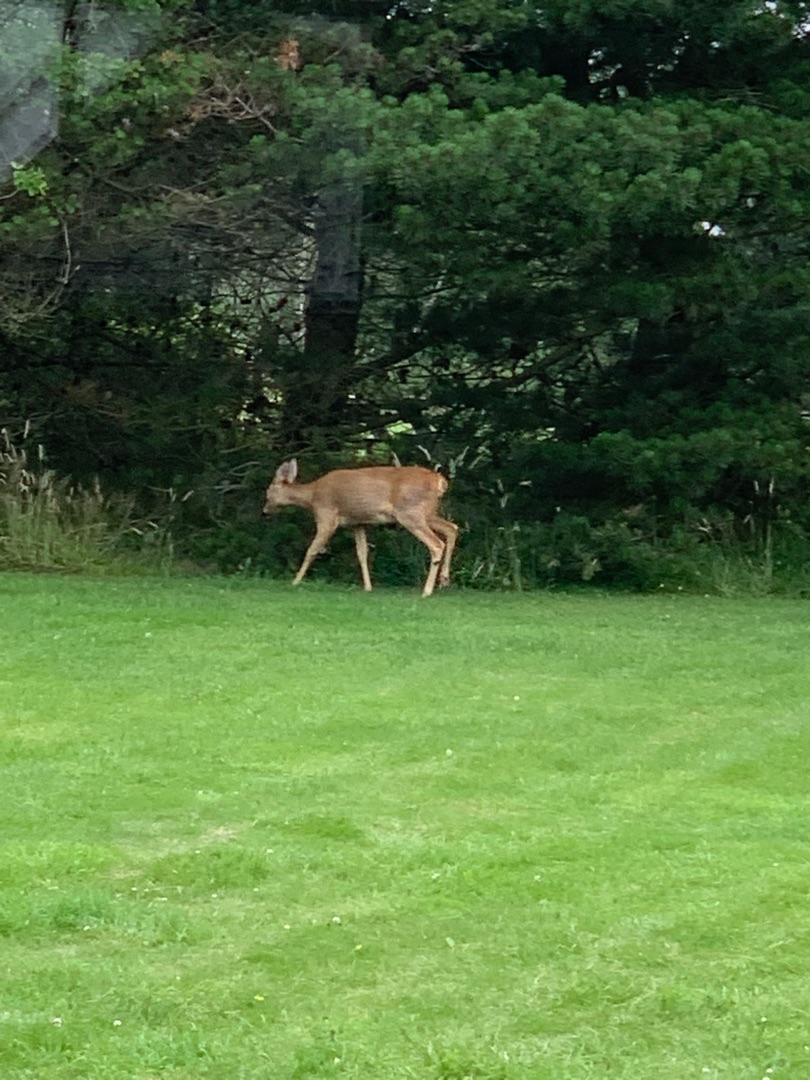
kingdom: Animalia
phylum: Chordata
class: Mammalia
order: Artiodactyla
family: Cervidae
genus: Capreolus
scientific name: Capreolus capreolus
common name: Rådyr
